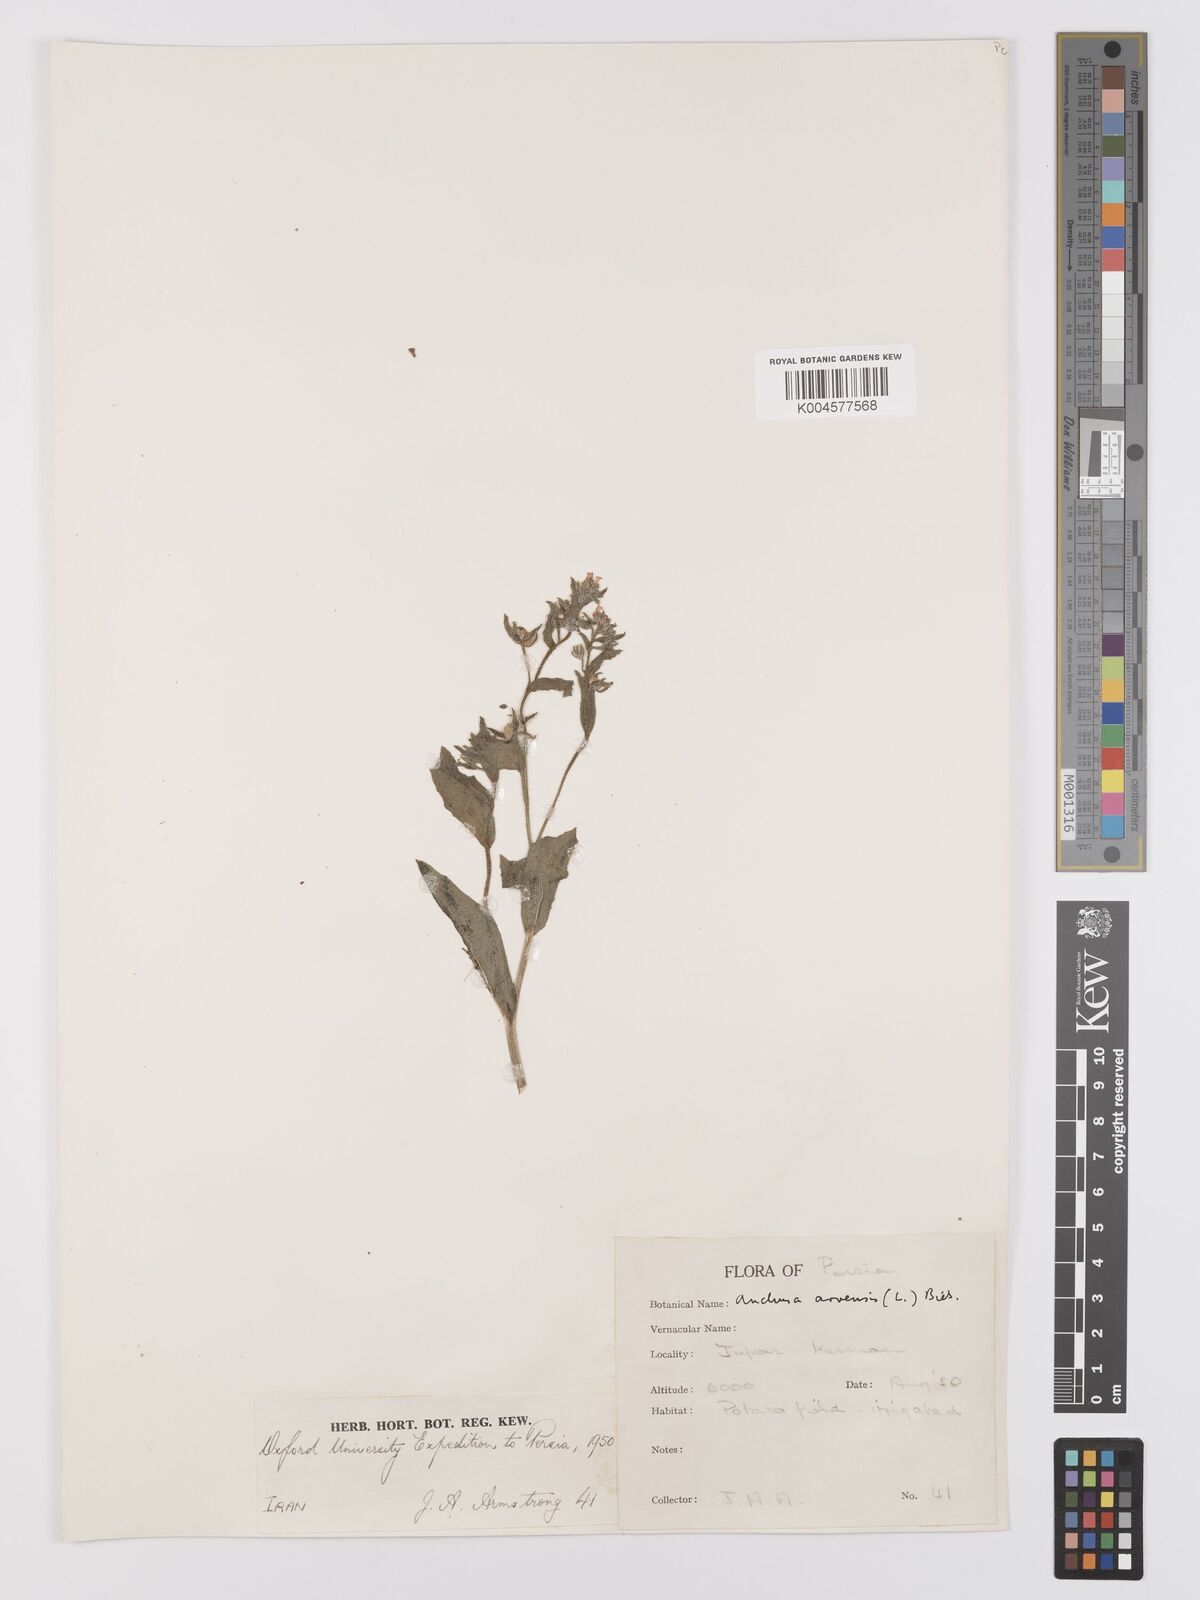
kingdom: Plantae
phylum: Tracheophyta
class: Magnoliopsida
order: Boraginales
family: Boraginaceae
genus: Lycopsis
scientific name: Lycopsis arvensis
